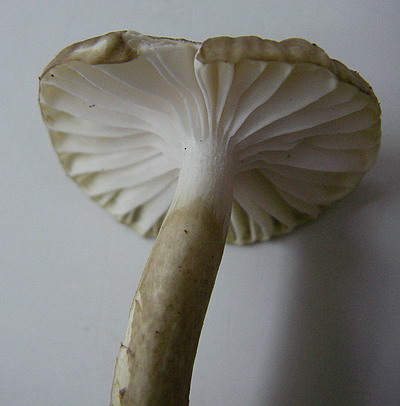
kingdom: Fungi
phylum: Basidiomycota
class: Agaricomycetes
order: Agaricales
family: Hygrophoraceae
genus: Hygrophorus
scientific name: Hygrophorus mesotephrus
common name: askegrå sneglehat
